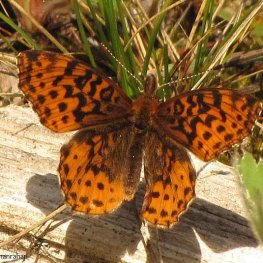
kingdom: Animalia
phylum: Arthropoda
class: Insecta
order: Lepidoptera
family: Nymphalidae
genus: Clossiana
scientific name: Clossiana toddi
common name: Meadow Fritillary
